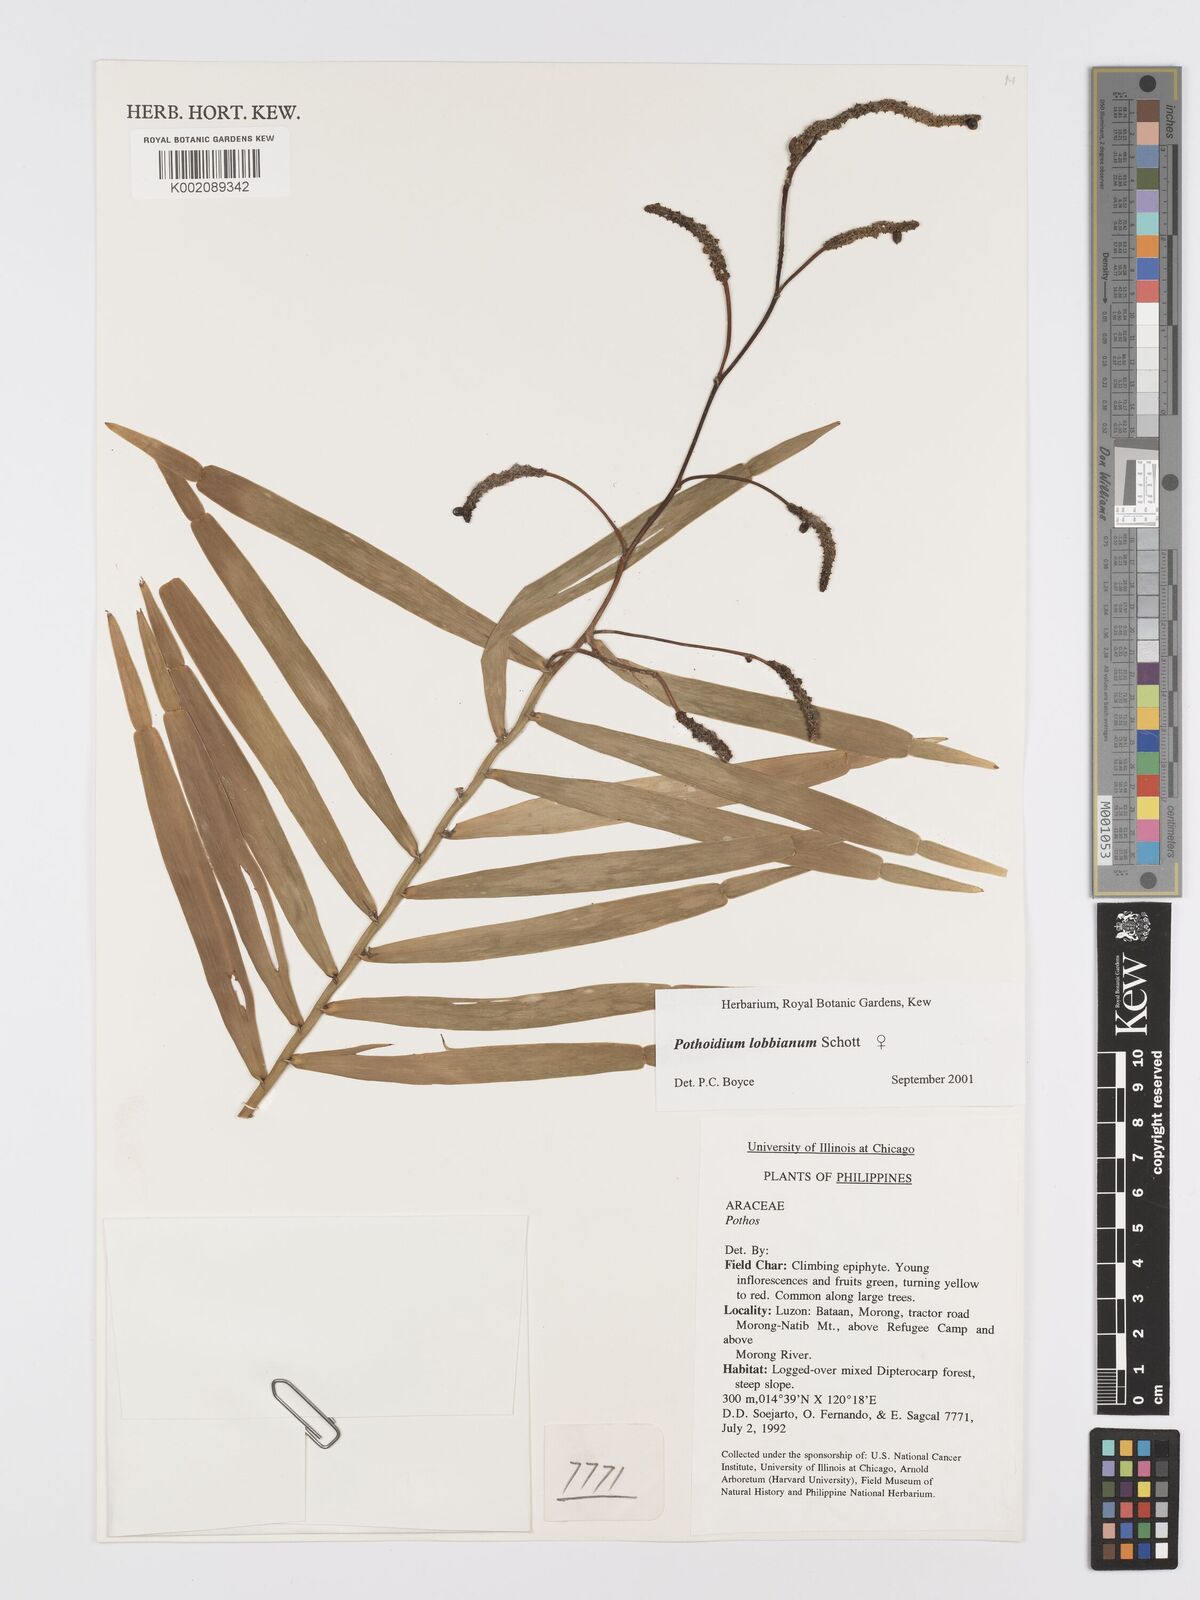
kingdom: Plantae
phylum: Tracheophyta
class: Liliopsida
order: Alismatales
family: Araceae
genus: Pothoidium
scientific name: Pothoidium lobbianum
